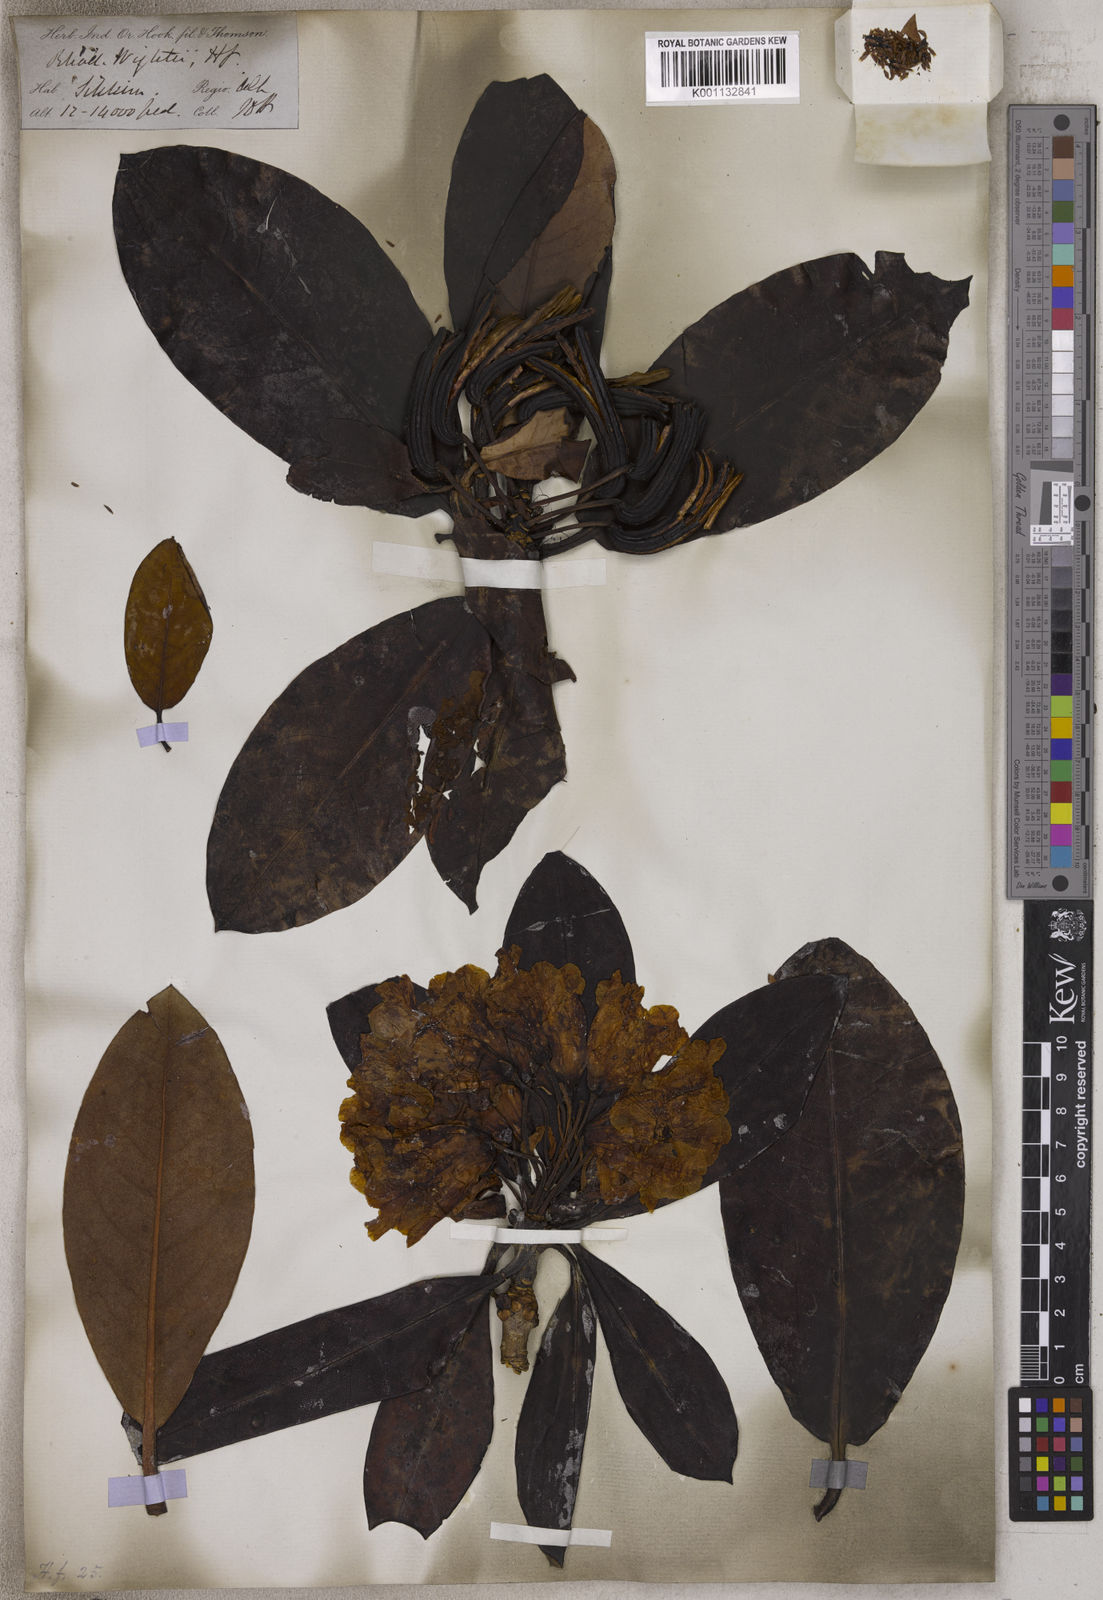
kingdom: Plantae
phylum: Tracheophyta
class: Magnoliopsida
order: Ericales
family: Ericaceae
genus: Rhododendron
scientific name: Rhododendron wightii
